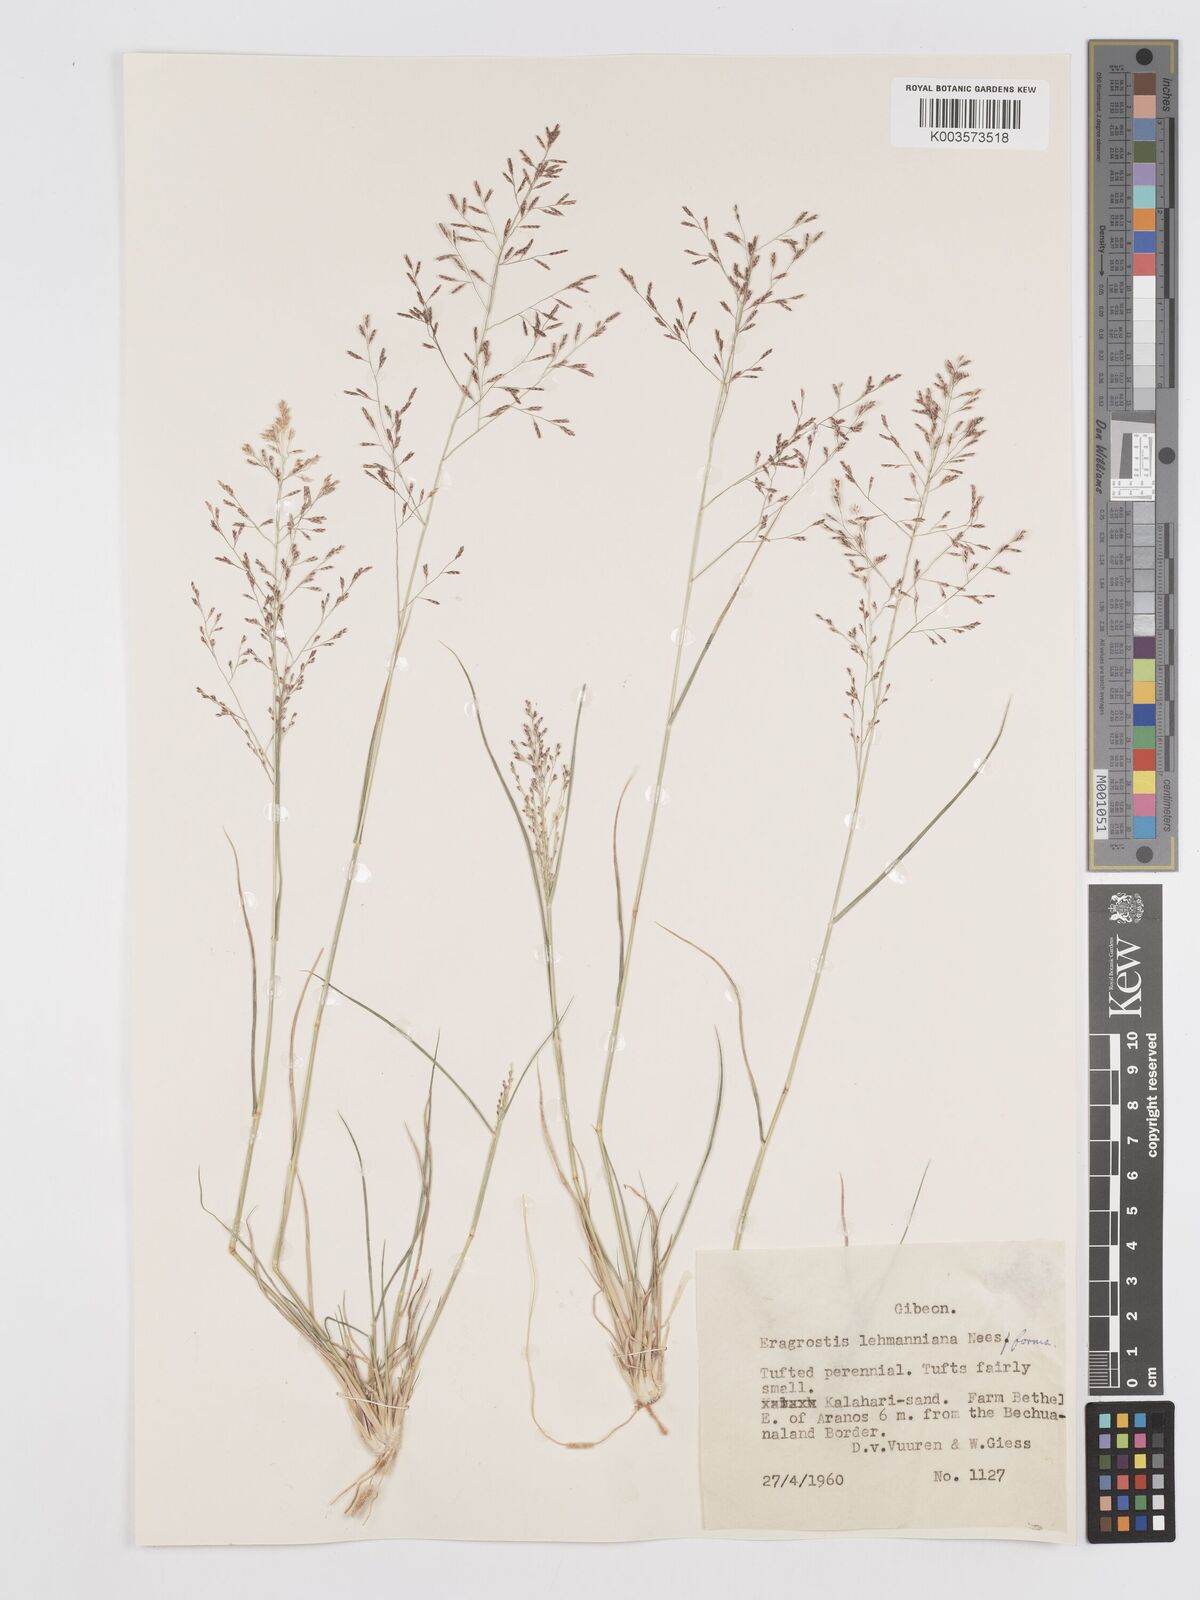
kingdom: Plantae
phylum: Tracheophyta
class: Liliopsida
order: Poales
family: Poaceae
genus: Eragrostis
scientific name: Eragrostis lehmanniana
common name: Lehmann lovegrass
